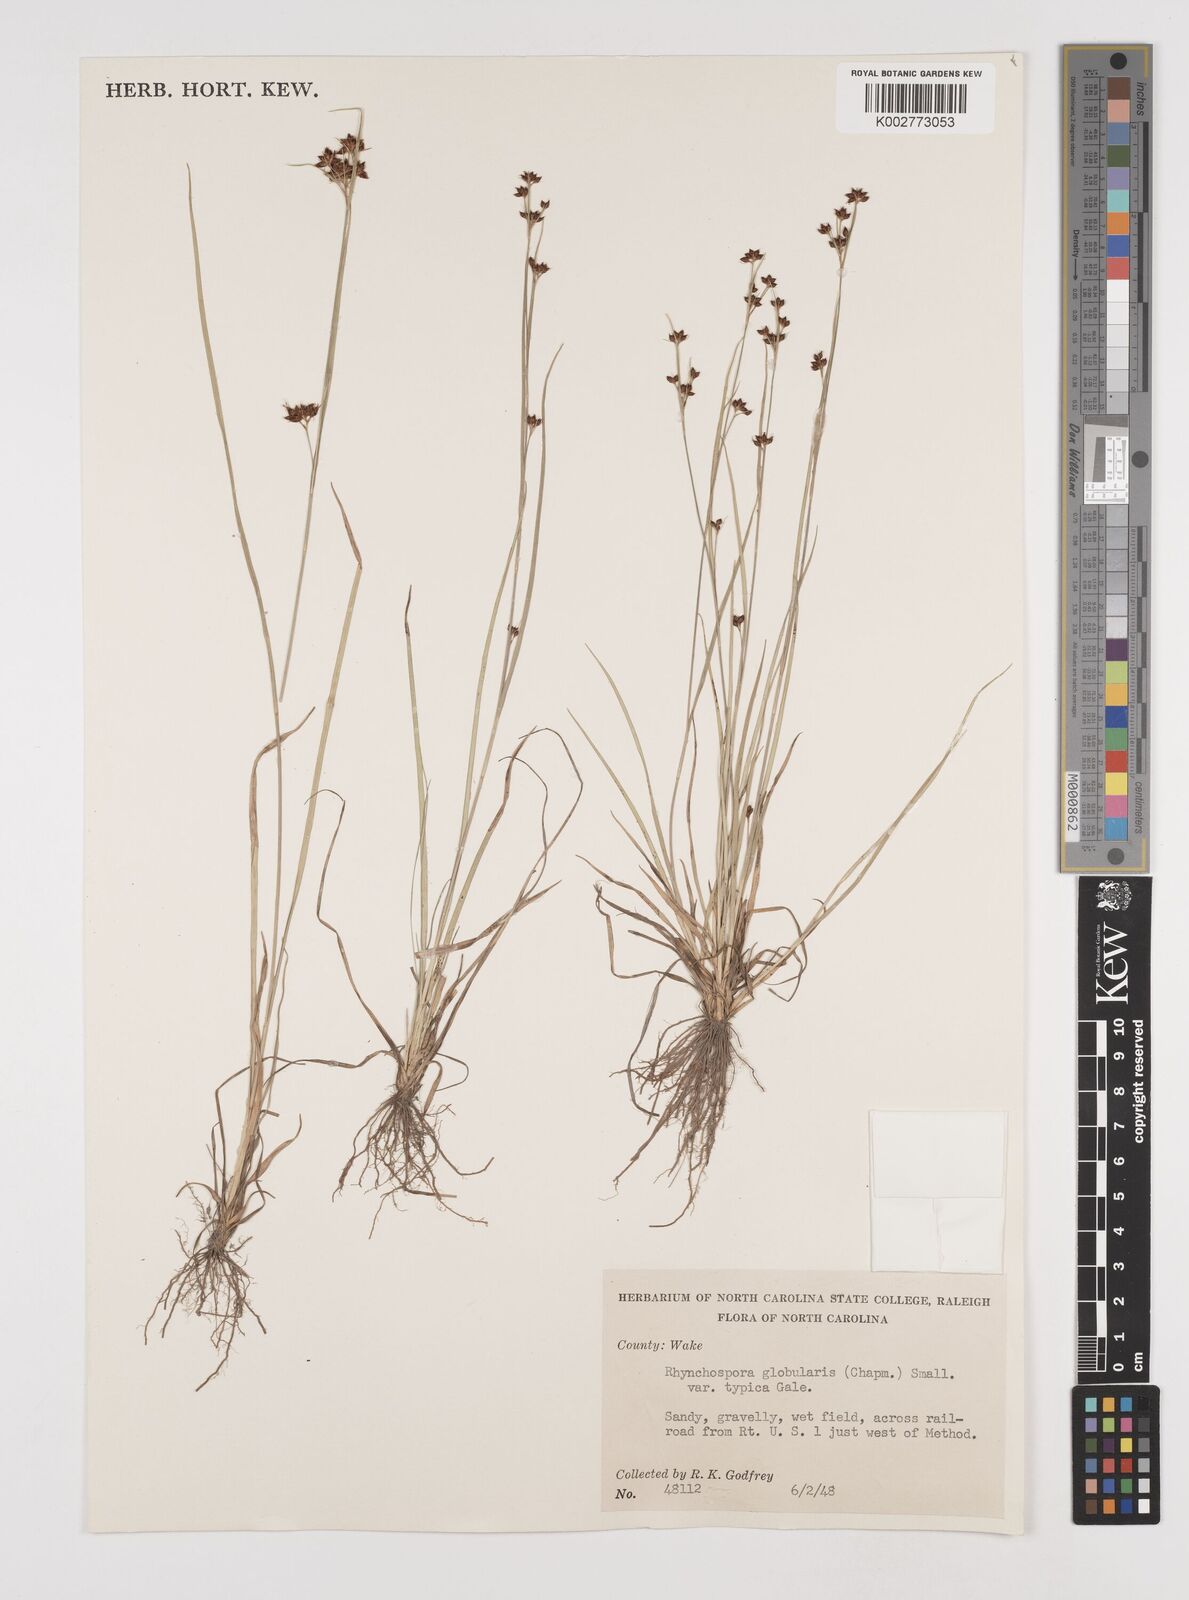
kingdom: Plantae
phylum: Tracheophyta
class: Liliopsida
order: Poales
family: Cyperaceae
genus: Rhynchospora
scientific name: Rhynchospora globularis
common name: Globe beaksedge
